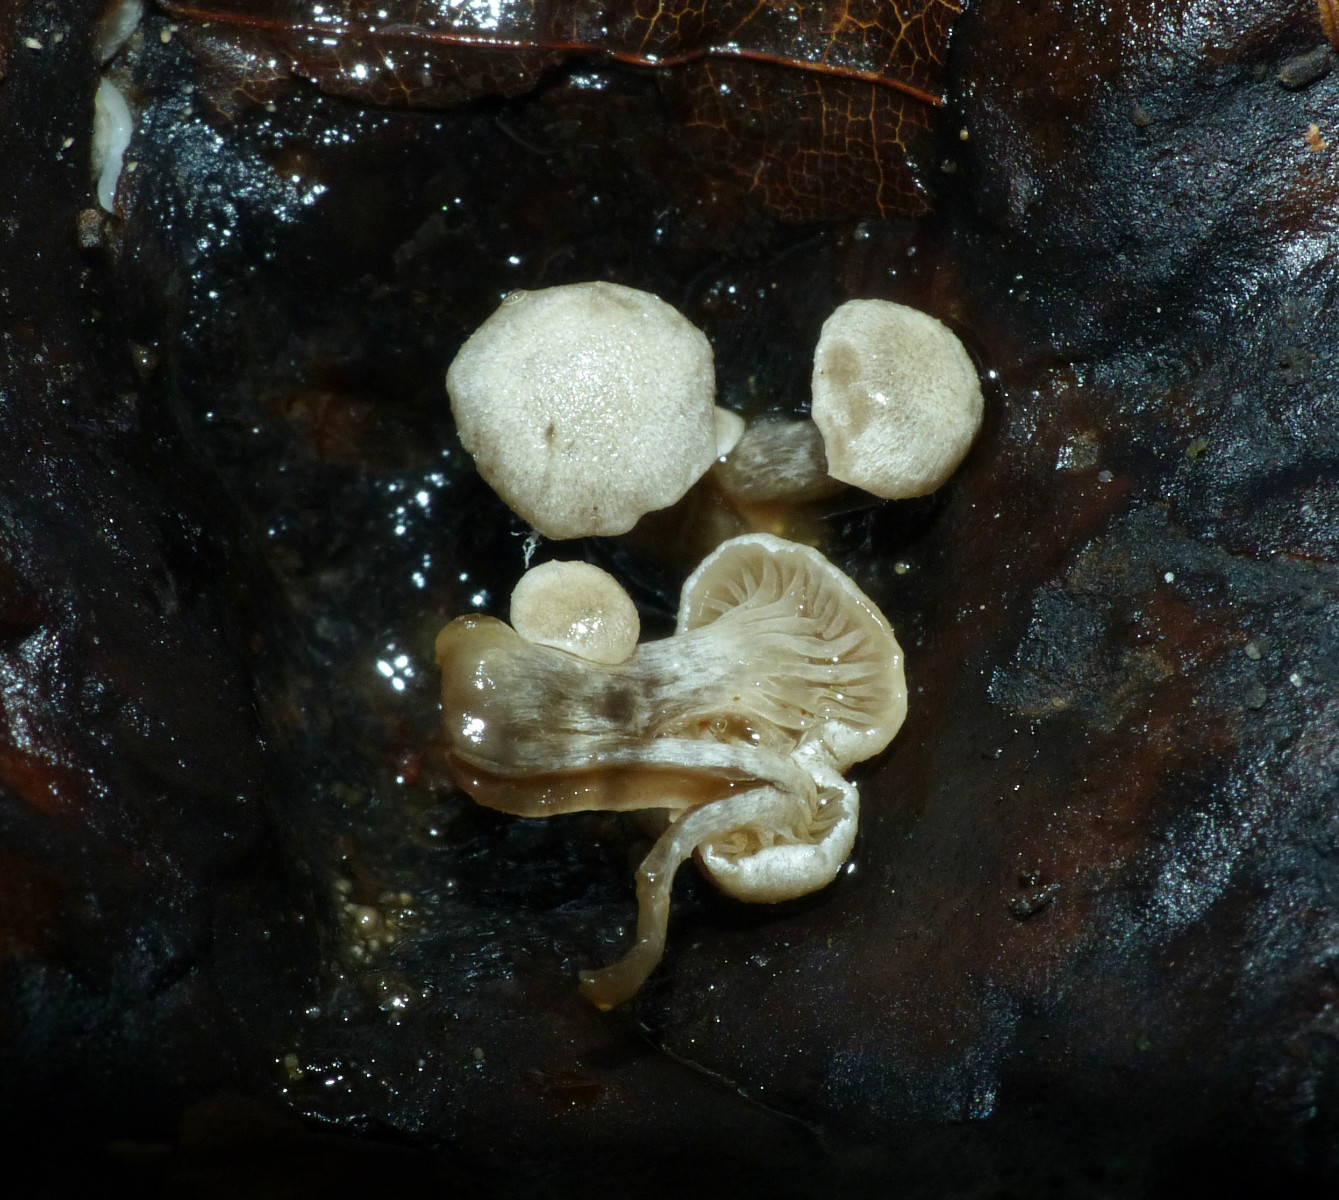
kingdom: Fungi
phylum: Basidiomycota
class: Agaricomycetes
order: Agaricales
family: Lyophyllaceae
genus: Asterophora
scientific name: Asterophora parasitica
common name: grå snyltehat
